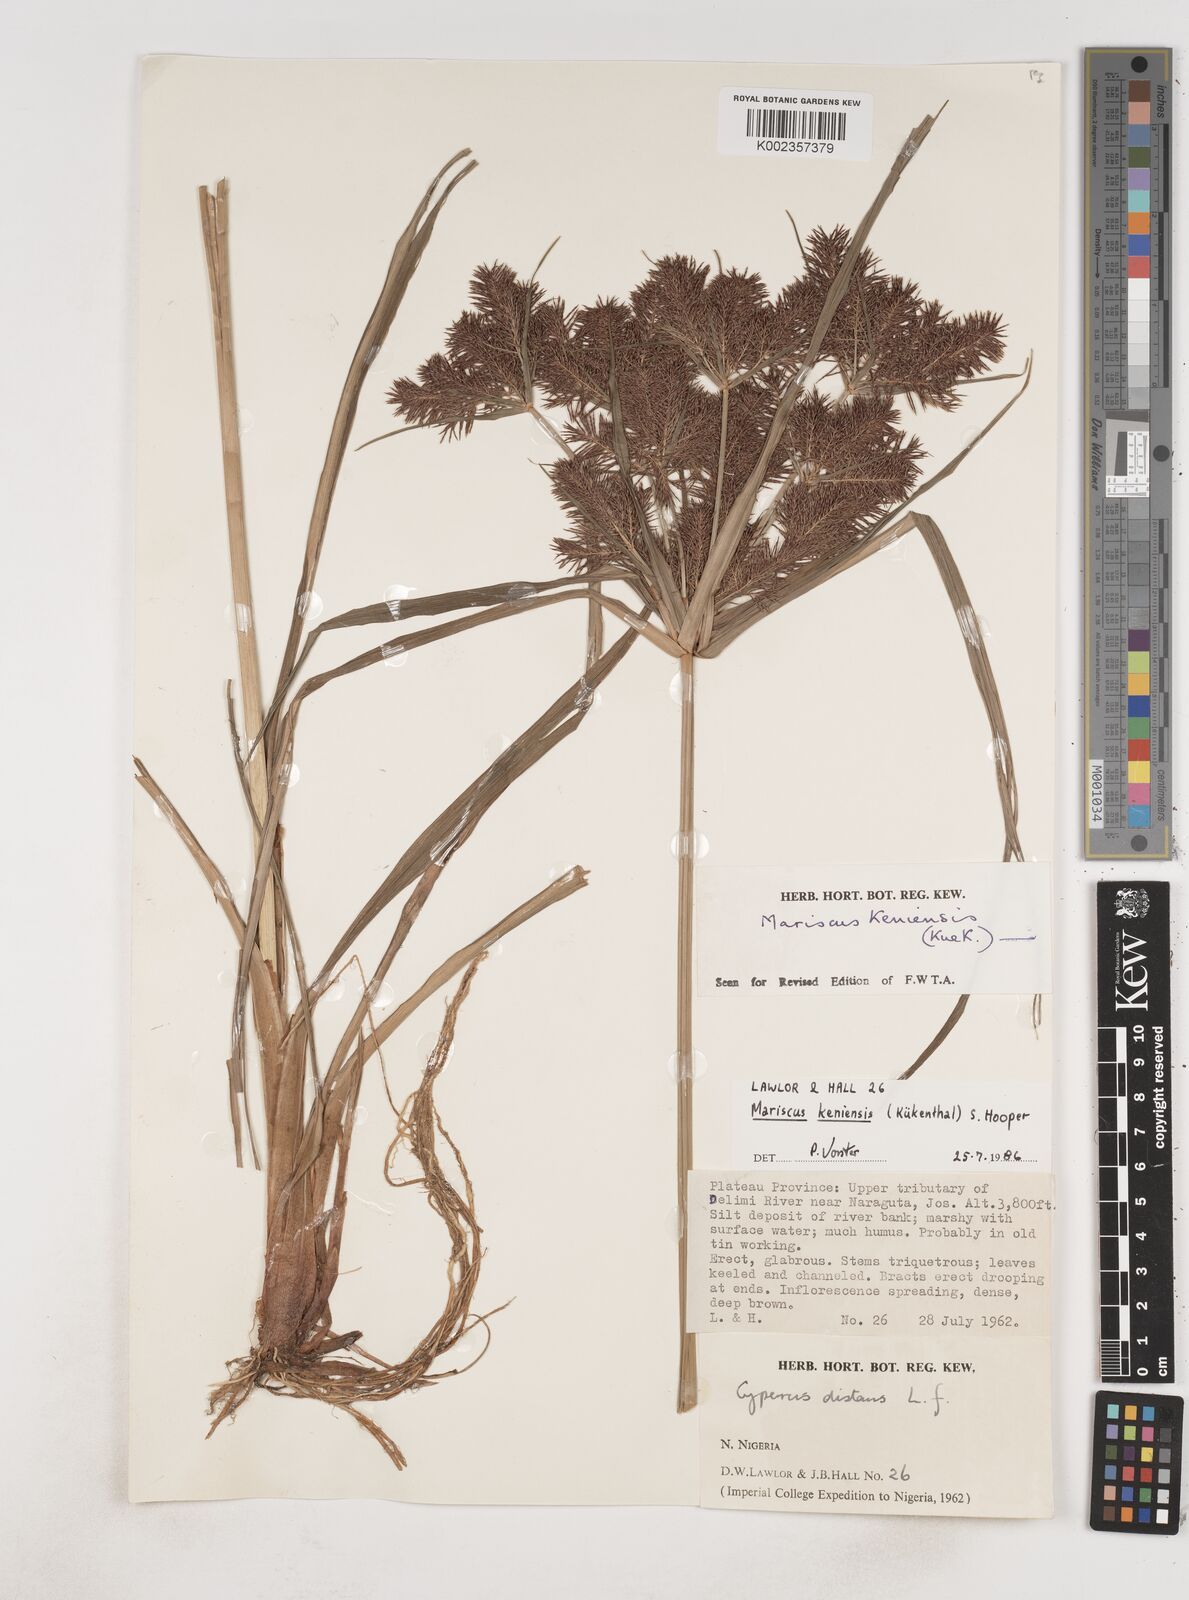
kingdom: Plantae
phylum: Tracheophyta
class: Liliopsida
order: Poales
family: Cyperaceae
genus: Cyperus
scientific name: Cyperus distans
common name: Slender cyperus
